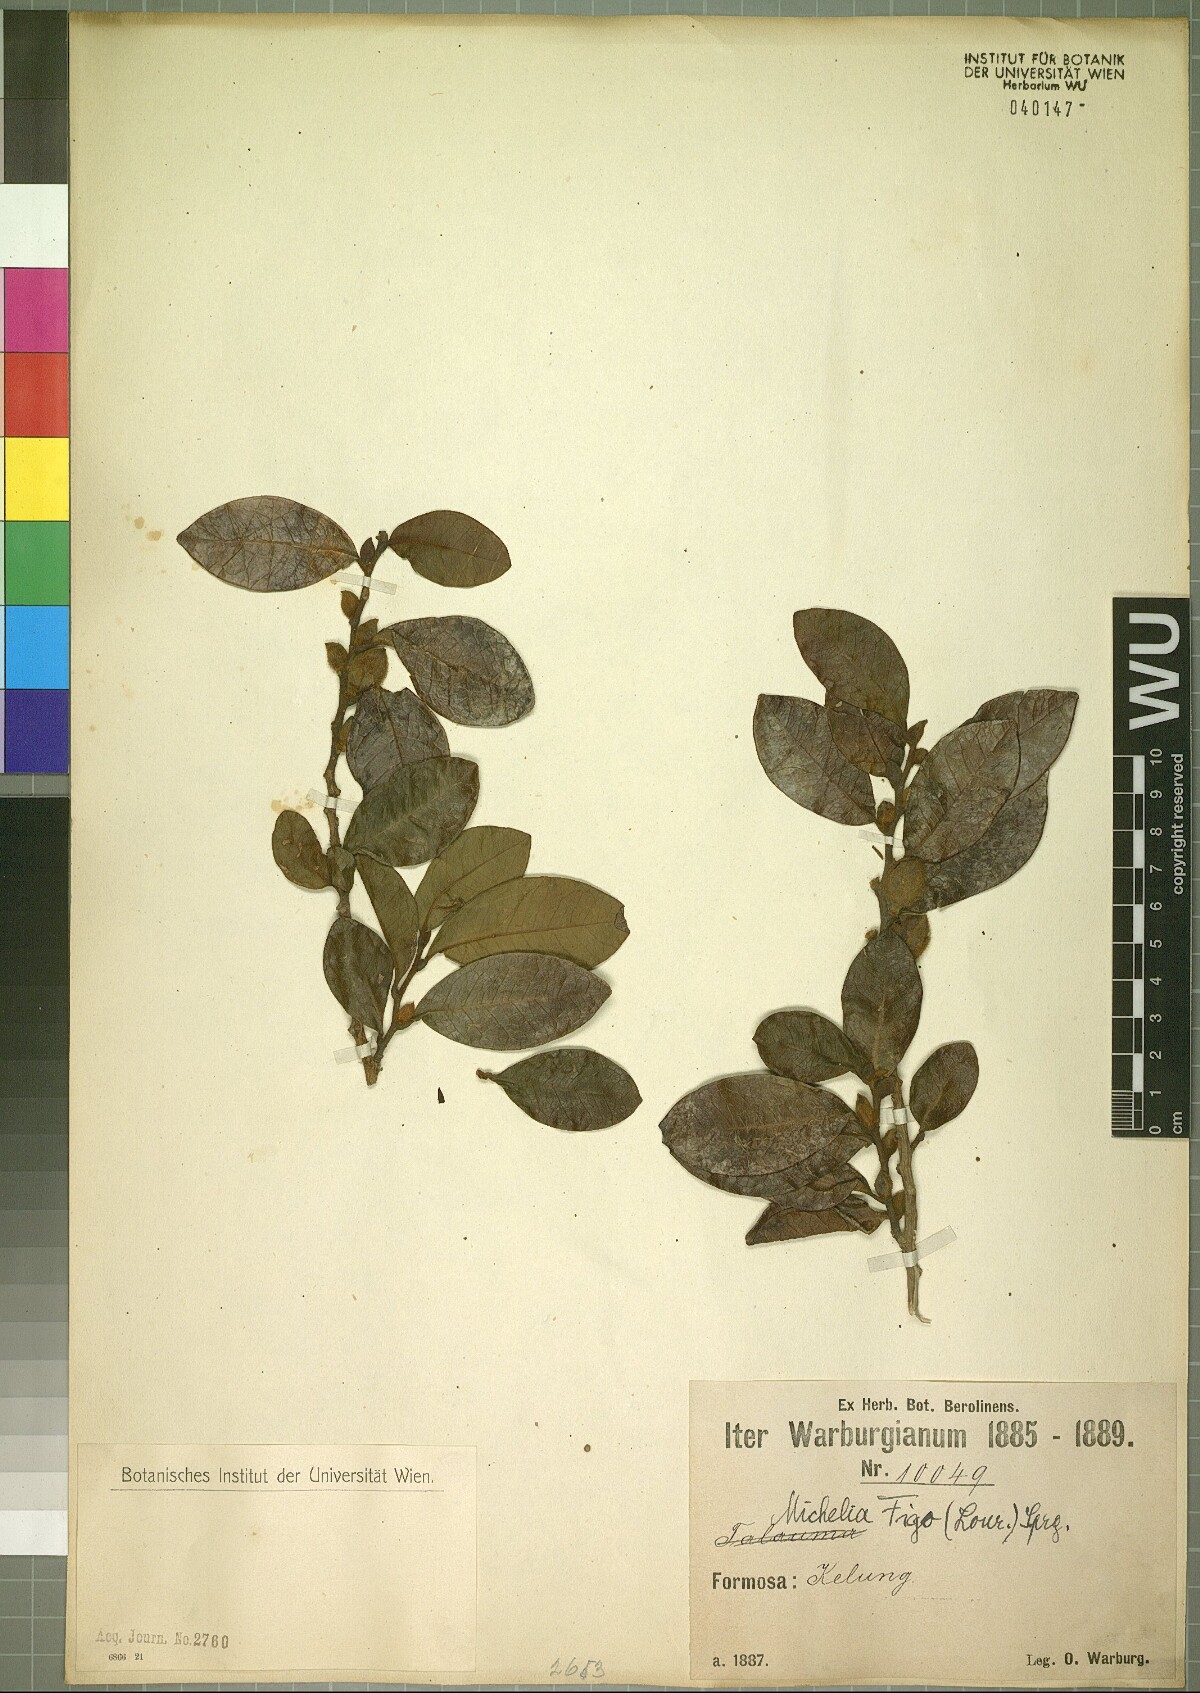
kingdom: Plantae
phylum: Tracheophyta
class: Magnoliopsida
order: Magnoliales
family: Magnoliaceae
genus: Magnolia
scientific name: Magnolia figo
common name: Banana shrub
